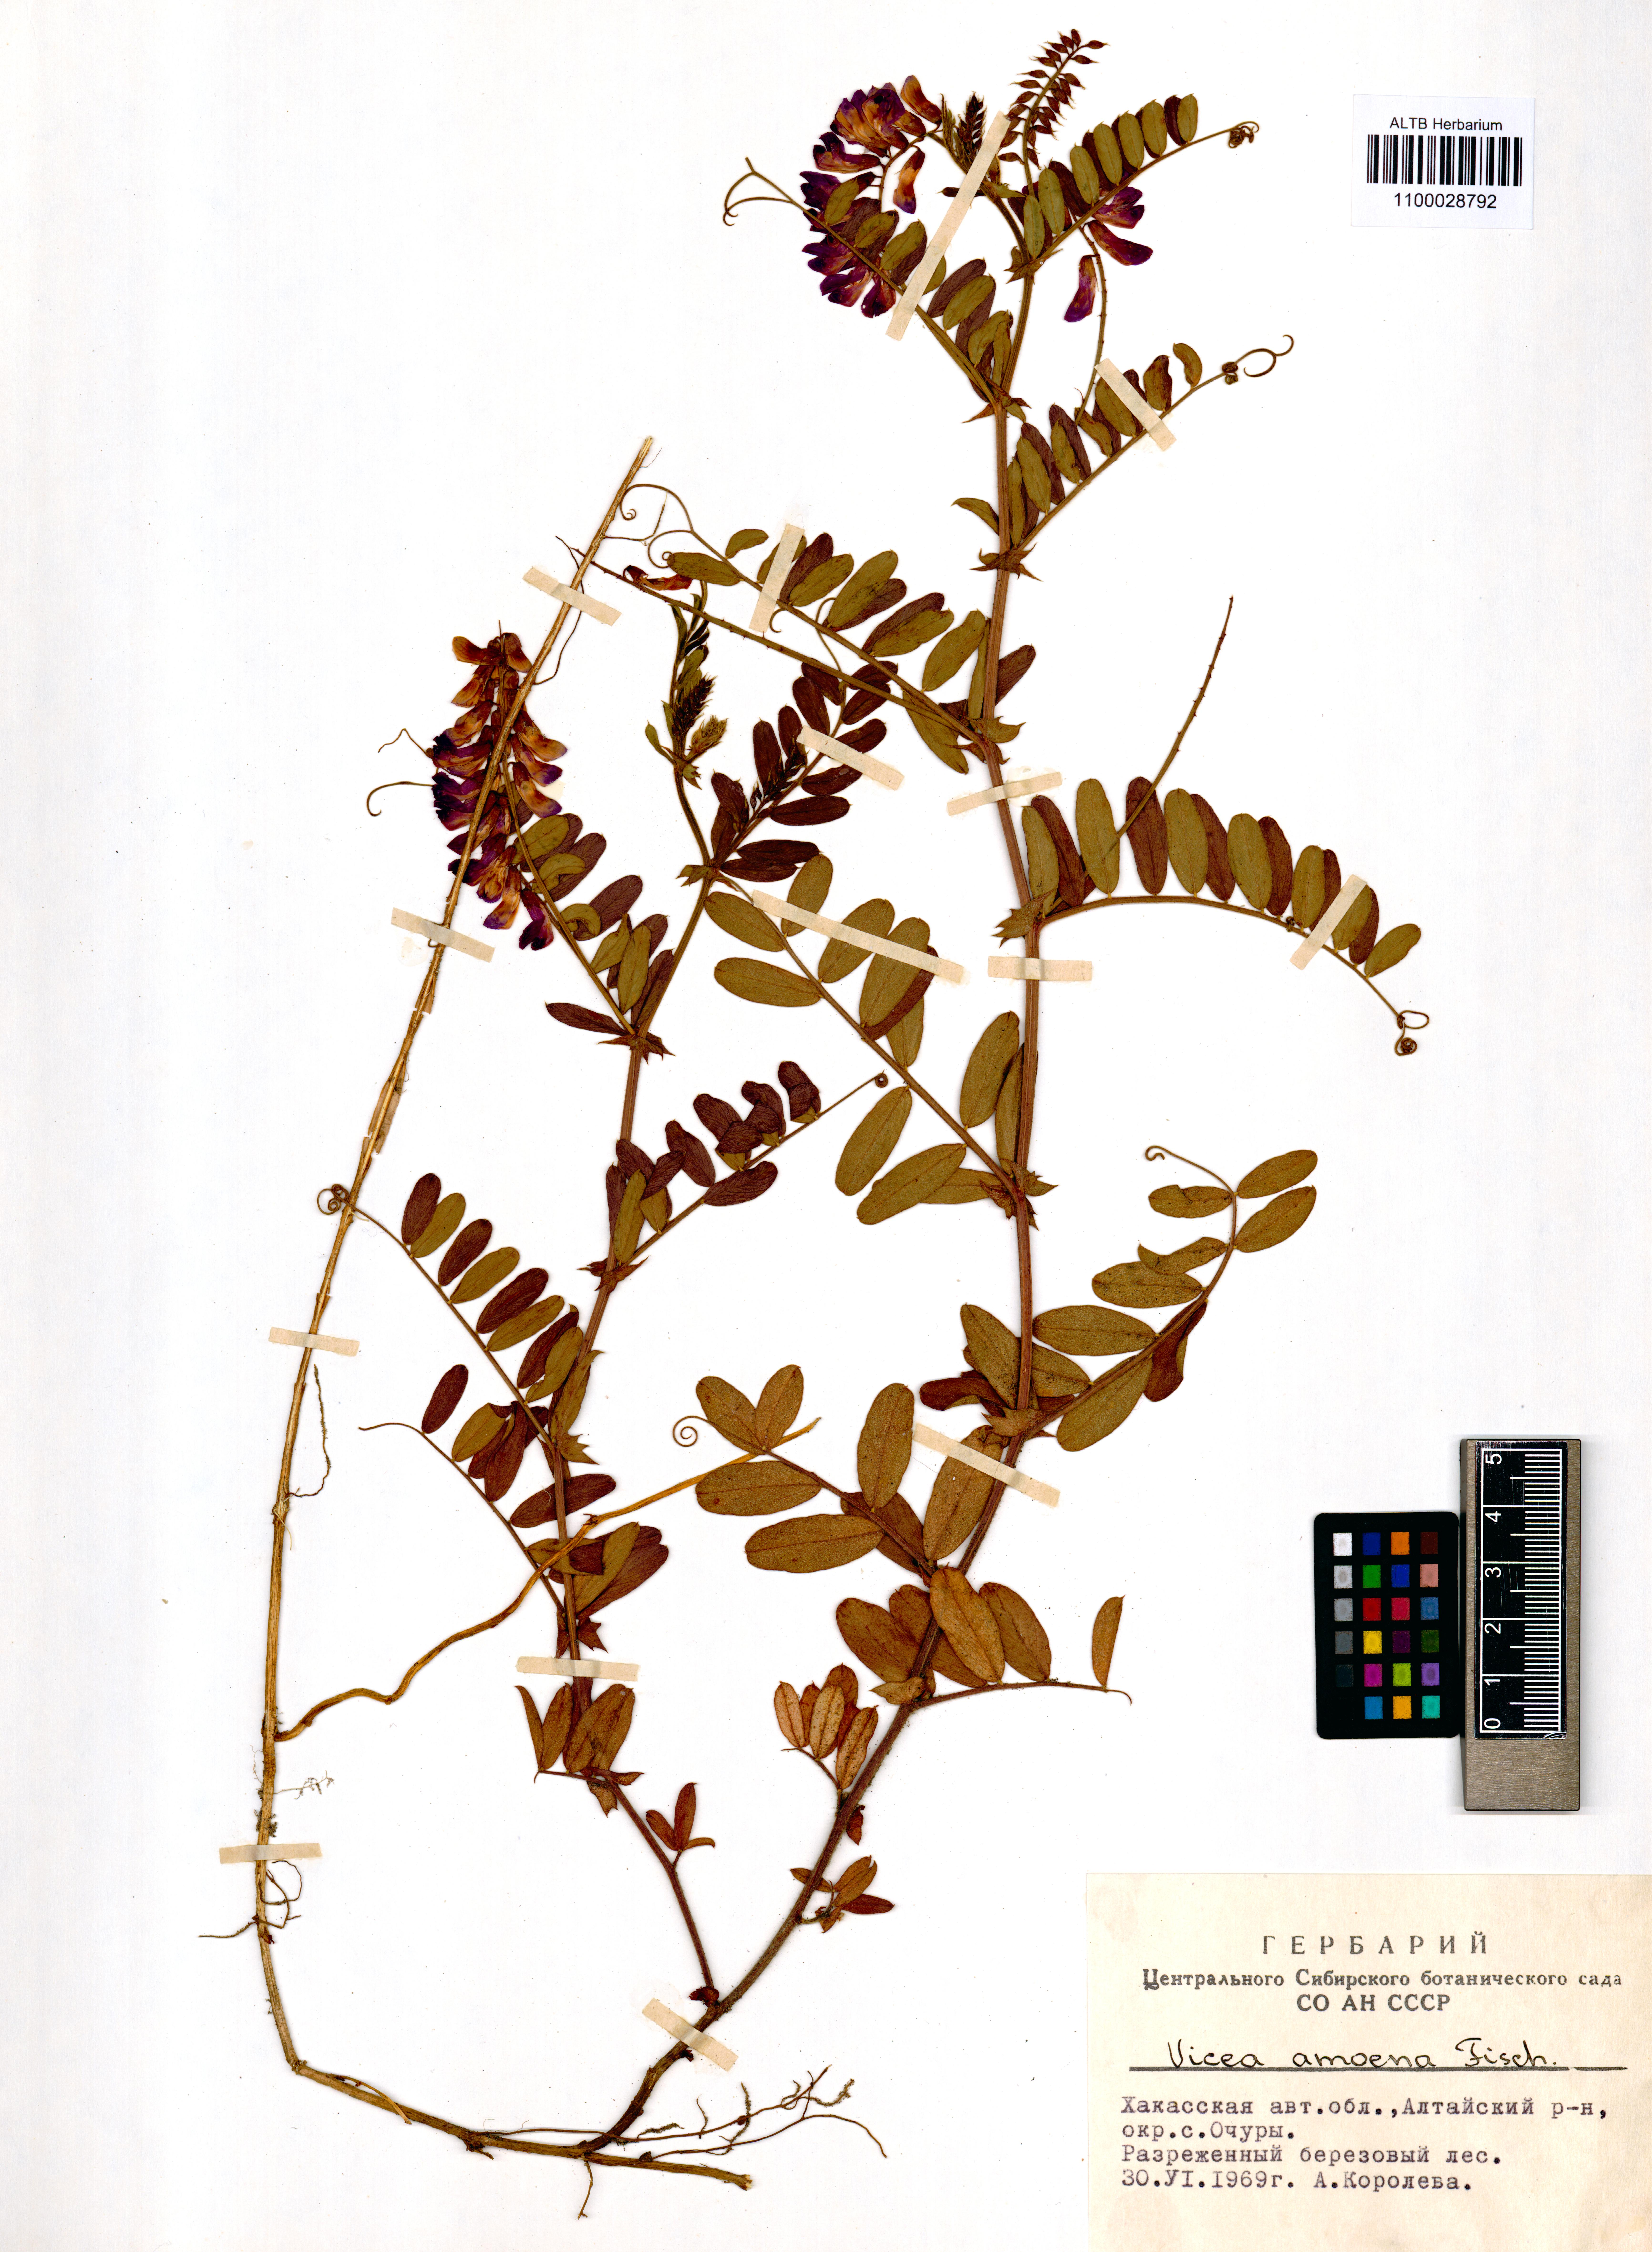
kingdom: Plantae
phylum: Tracheophyta
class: Magnoliopsida
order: Fabales
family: Fabaceae
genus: Vicia
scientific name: Vicia amoena
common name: Cheder ebs
